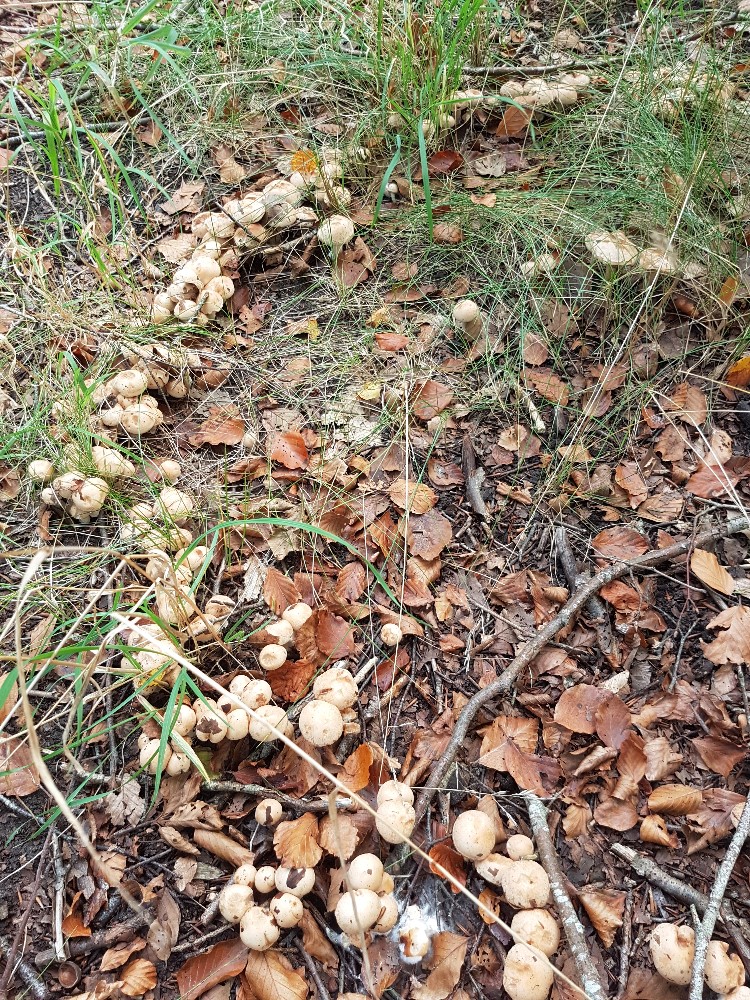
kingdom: Fungi
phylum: Basidiomycota
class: Agaricomycetes
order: Agaricales
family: Cortinariaceae
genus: Cortinarius
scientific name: Cortinarius
